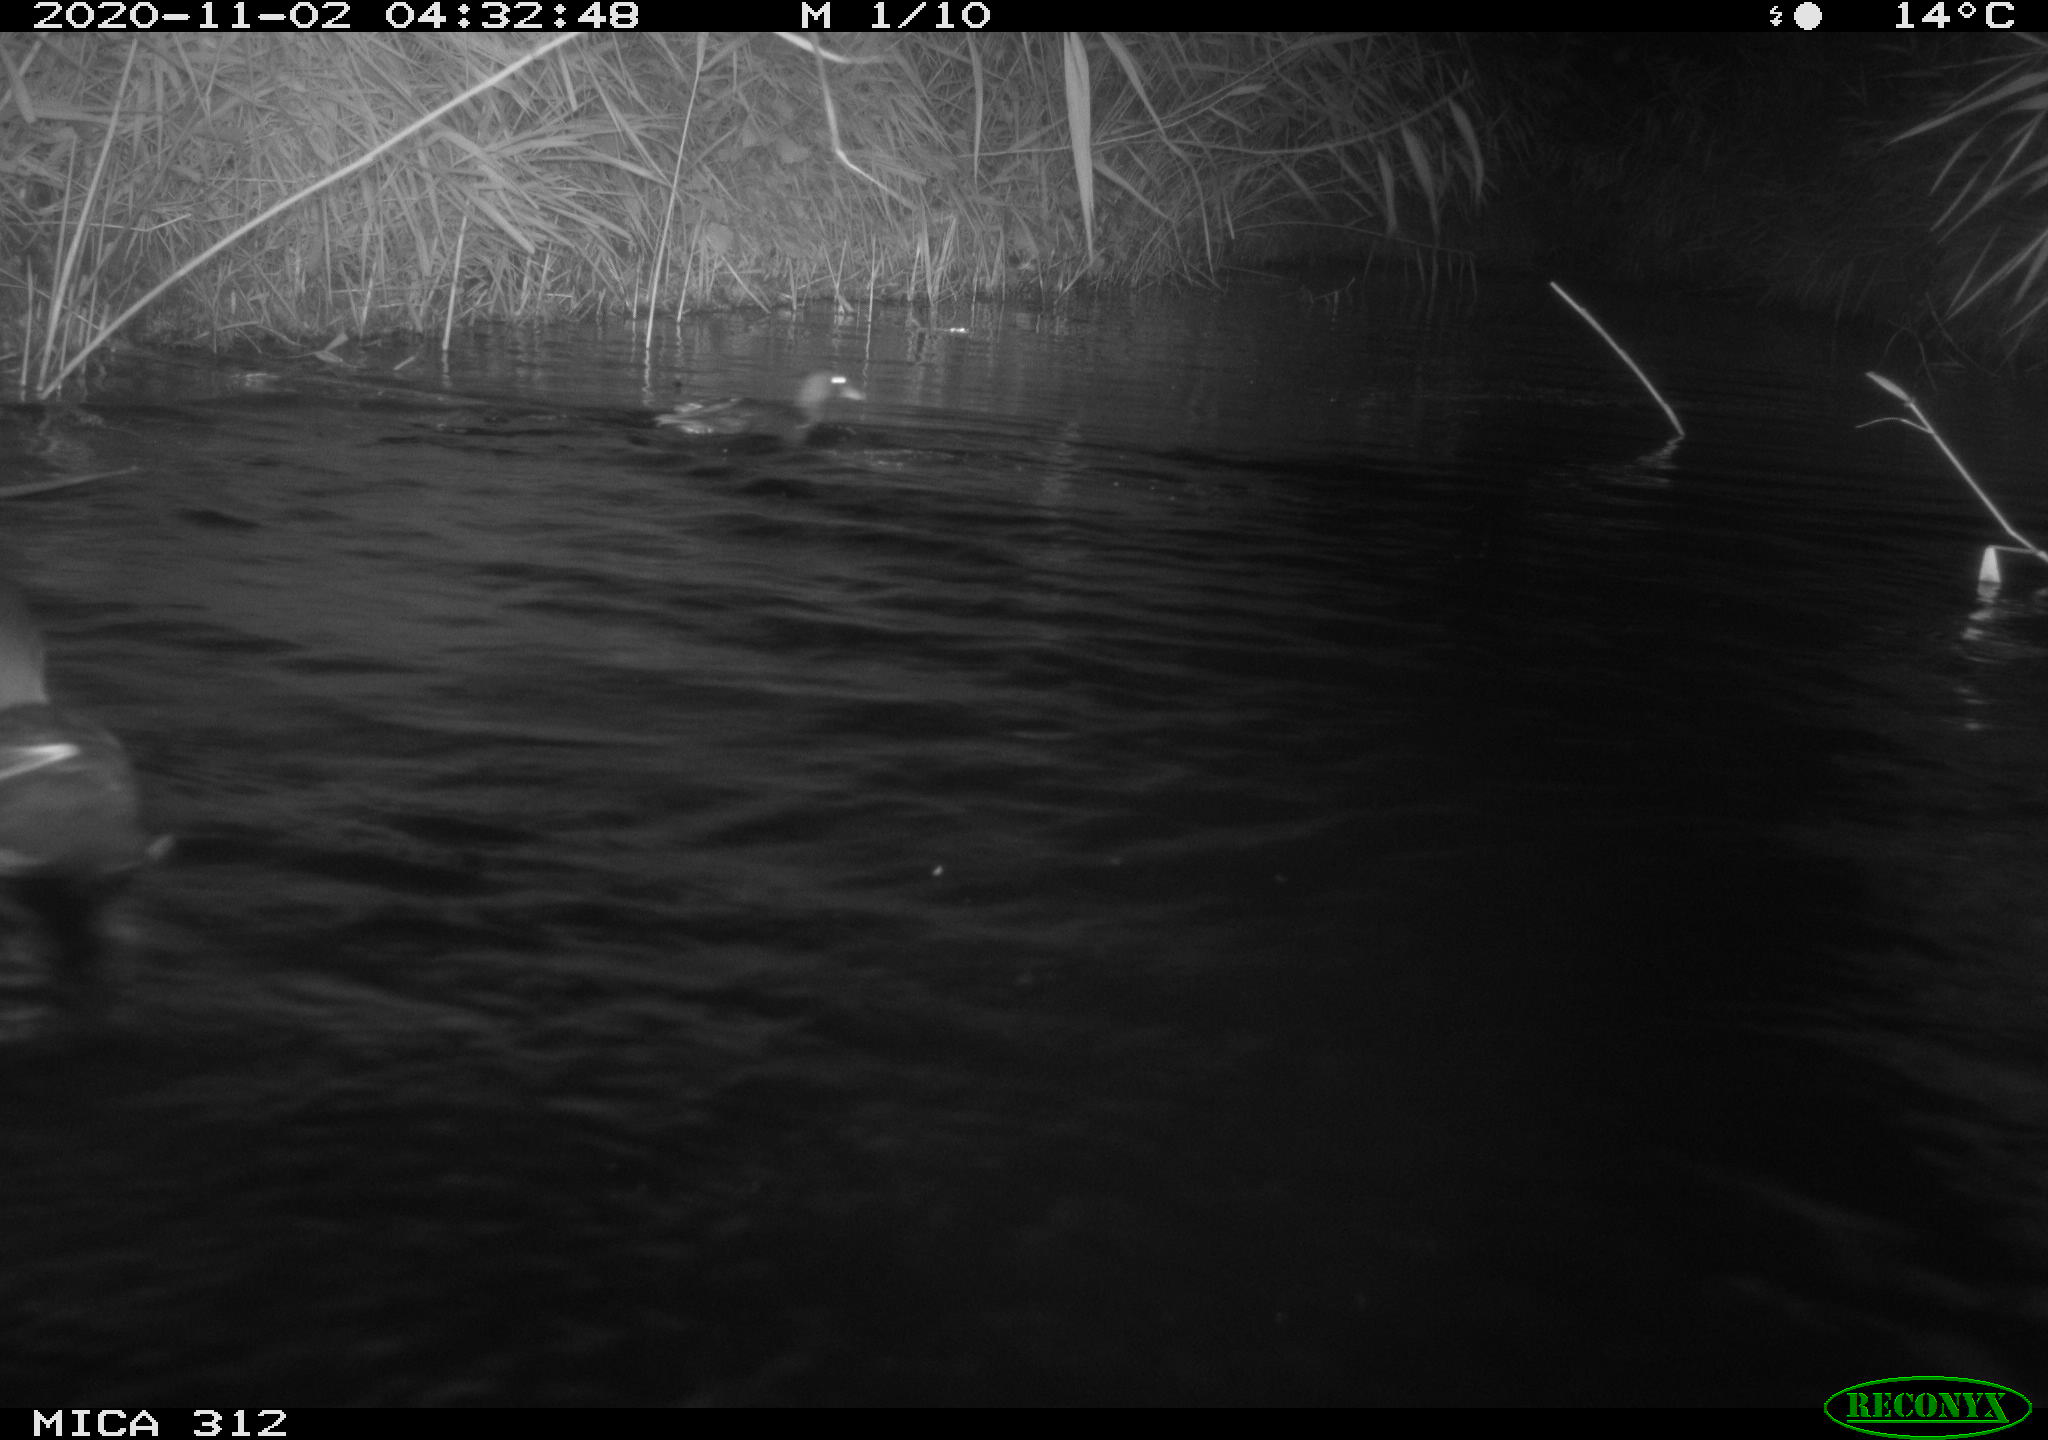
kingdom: Animalia
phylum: Chordata
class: Aves
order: Gruiformes
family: Rallidae
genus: Fulica
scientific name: Fulica atra
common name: Eurasian coot
